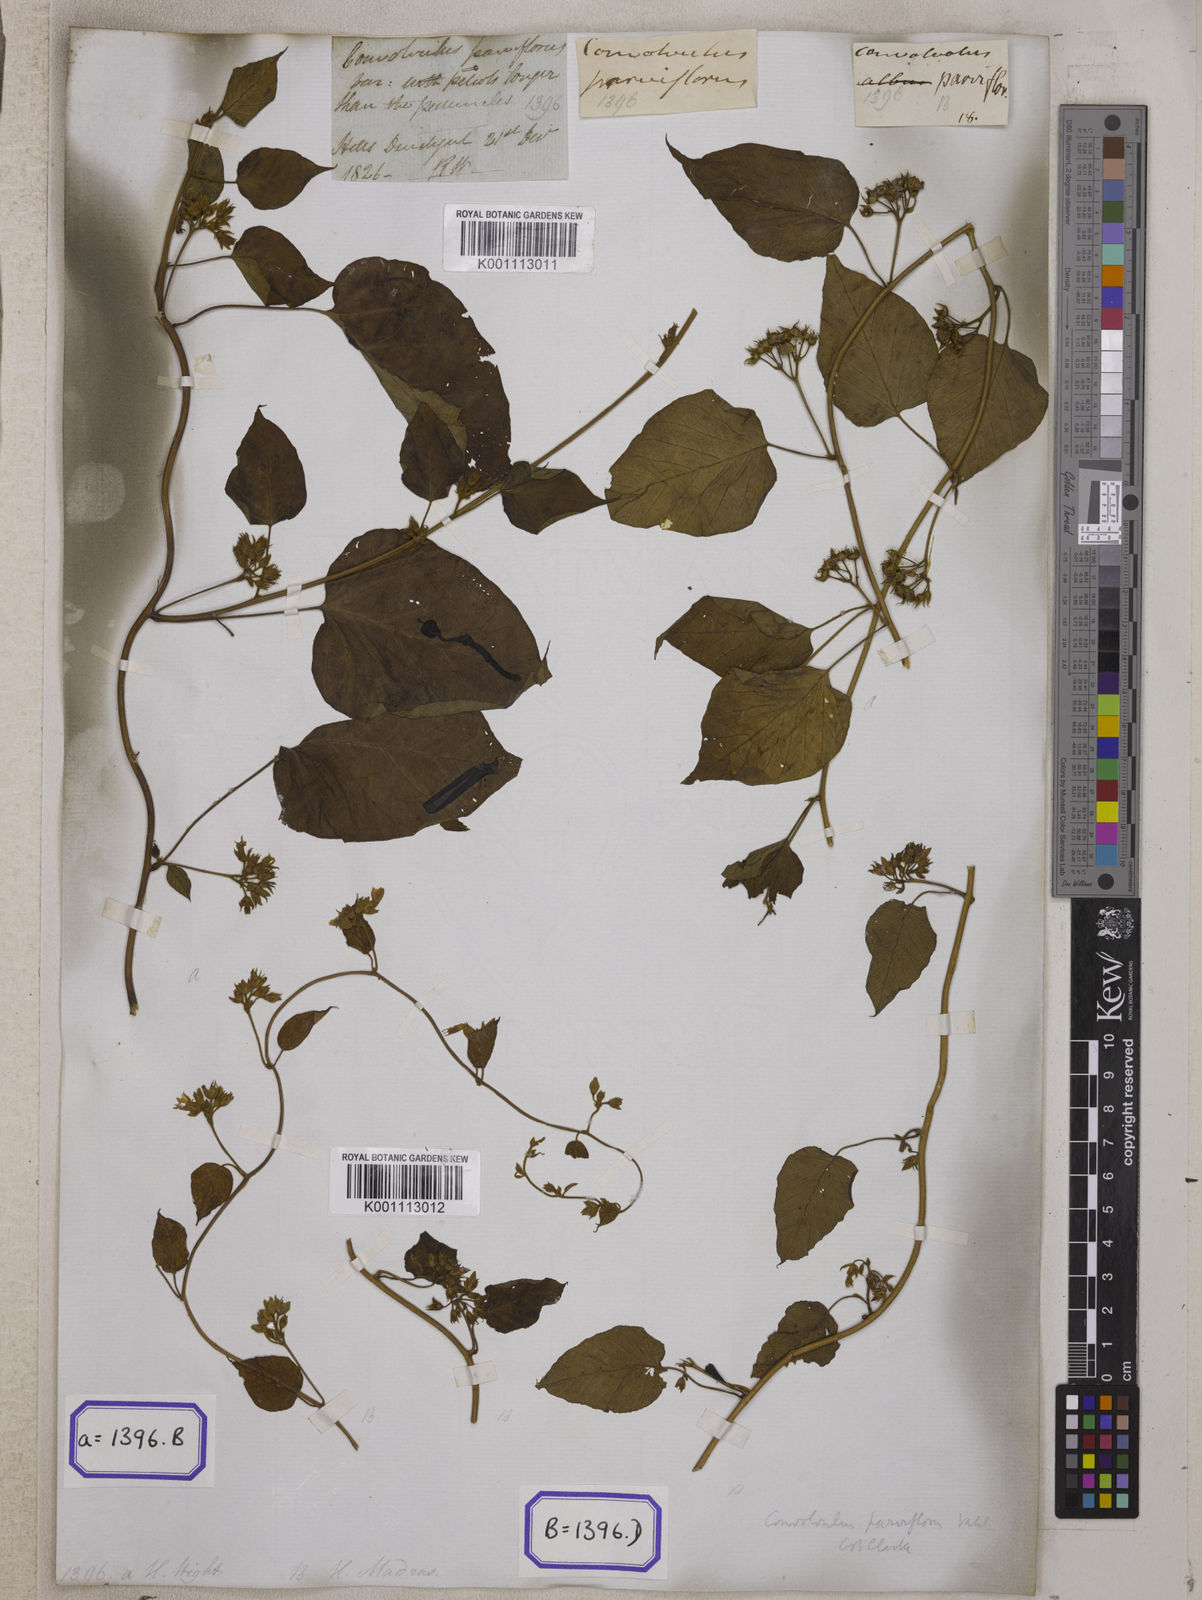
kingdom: Plantae
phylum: Tracheophyta
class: Magnoliopsida
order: Solanales
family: Convolvulaceae
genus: Convolvulus
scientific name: Convolvulus
